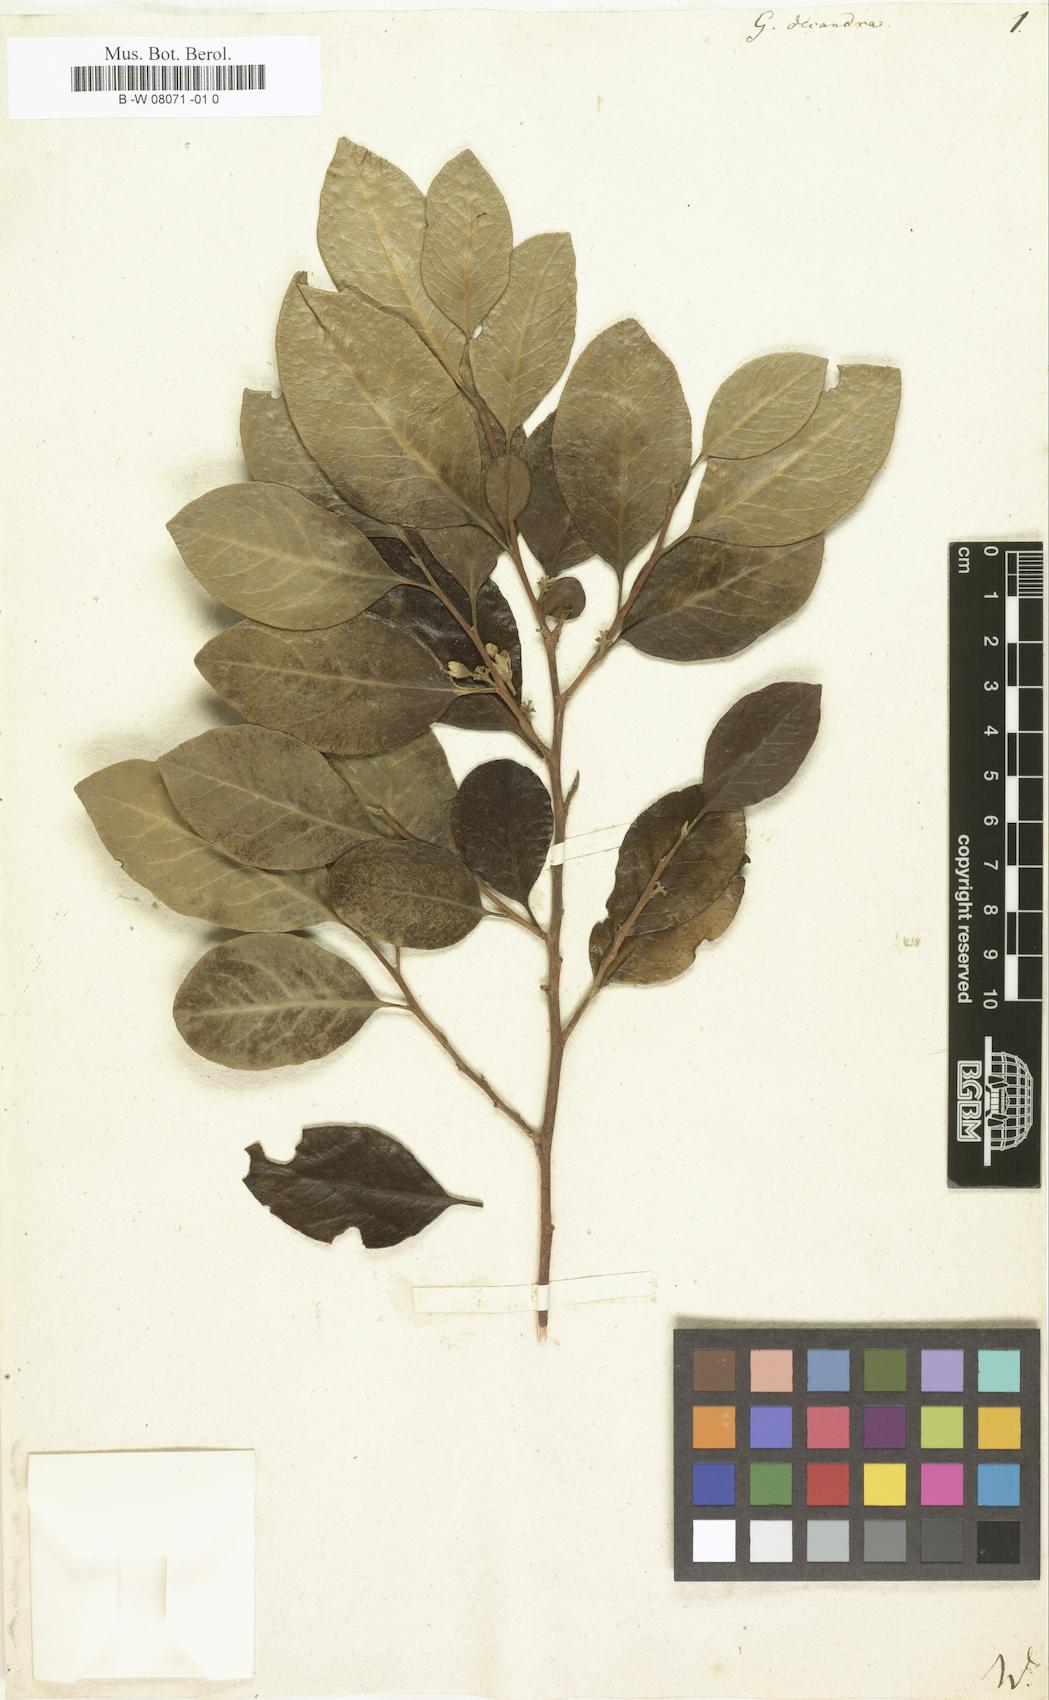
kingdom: Plantae
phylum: Tracheophyta
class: Magnoliopsida
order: Sapindales
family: Meliaceae
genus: Turraea
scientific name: Turraea rutilans
